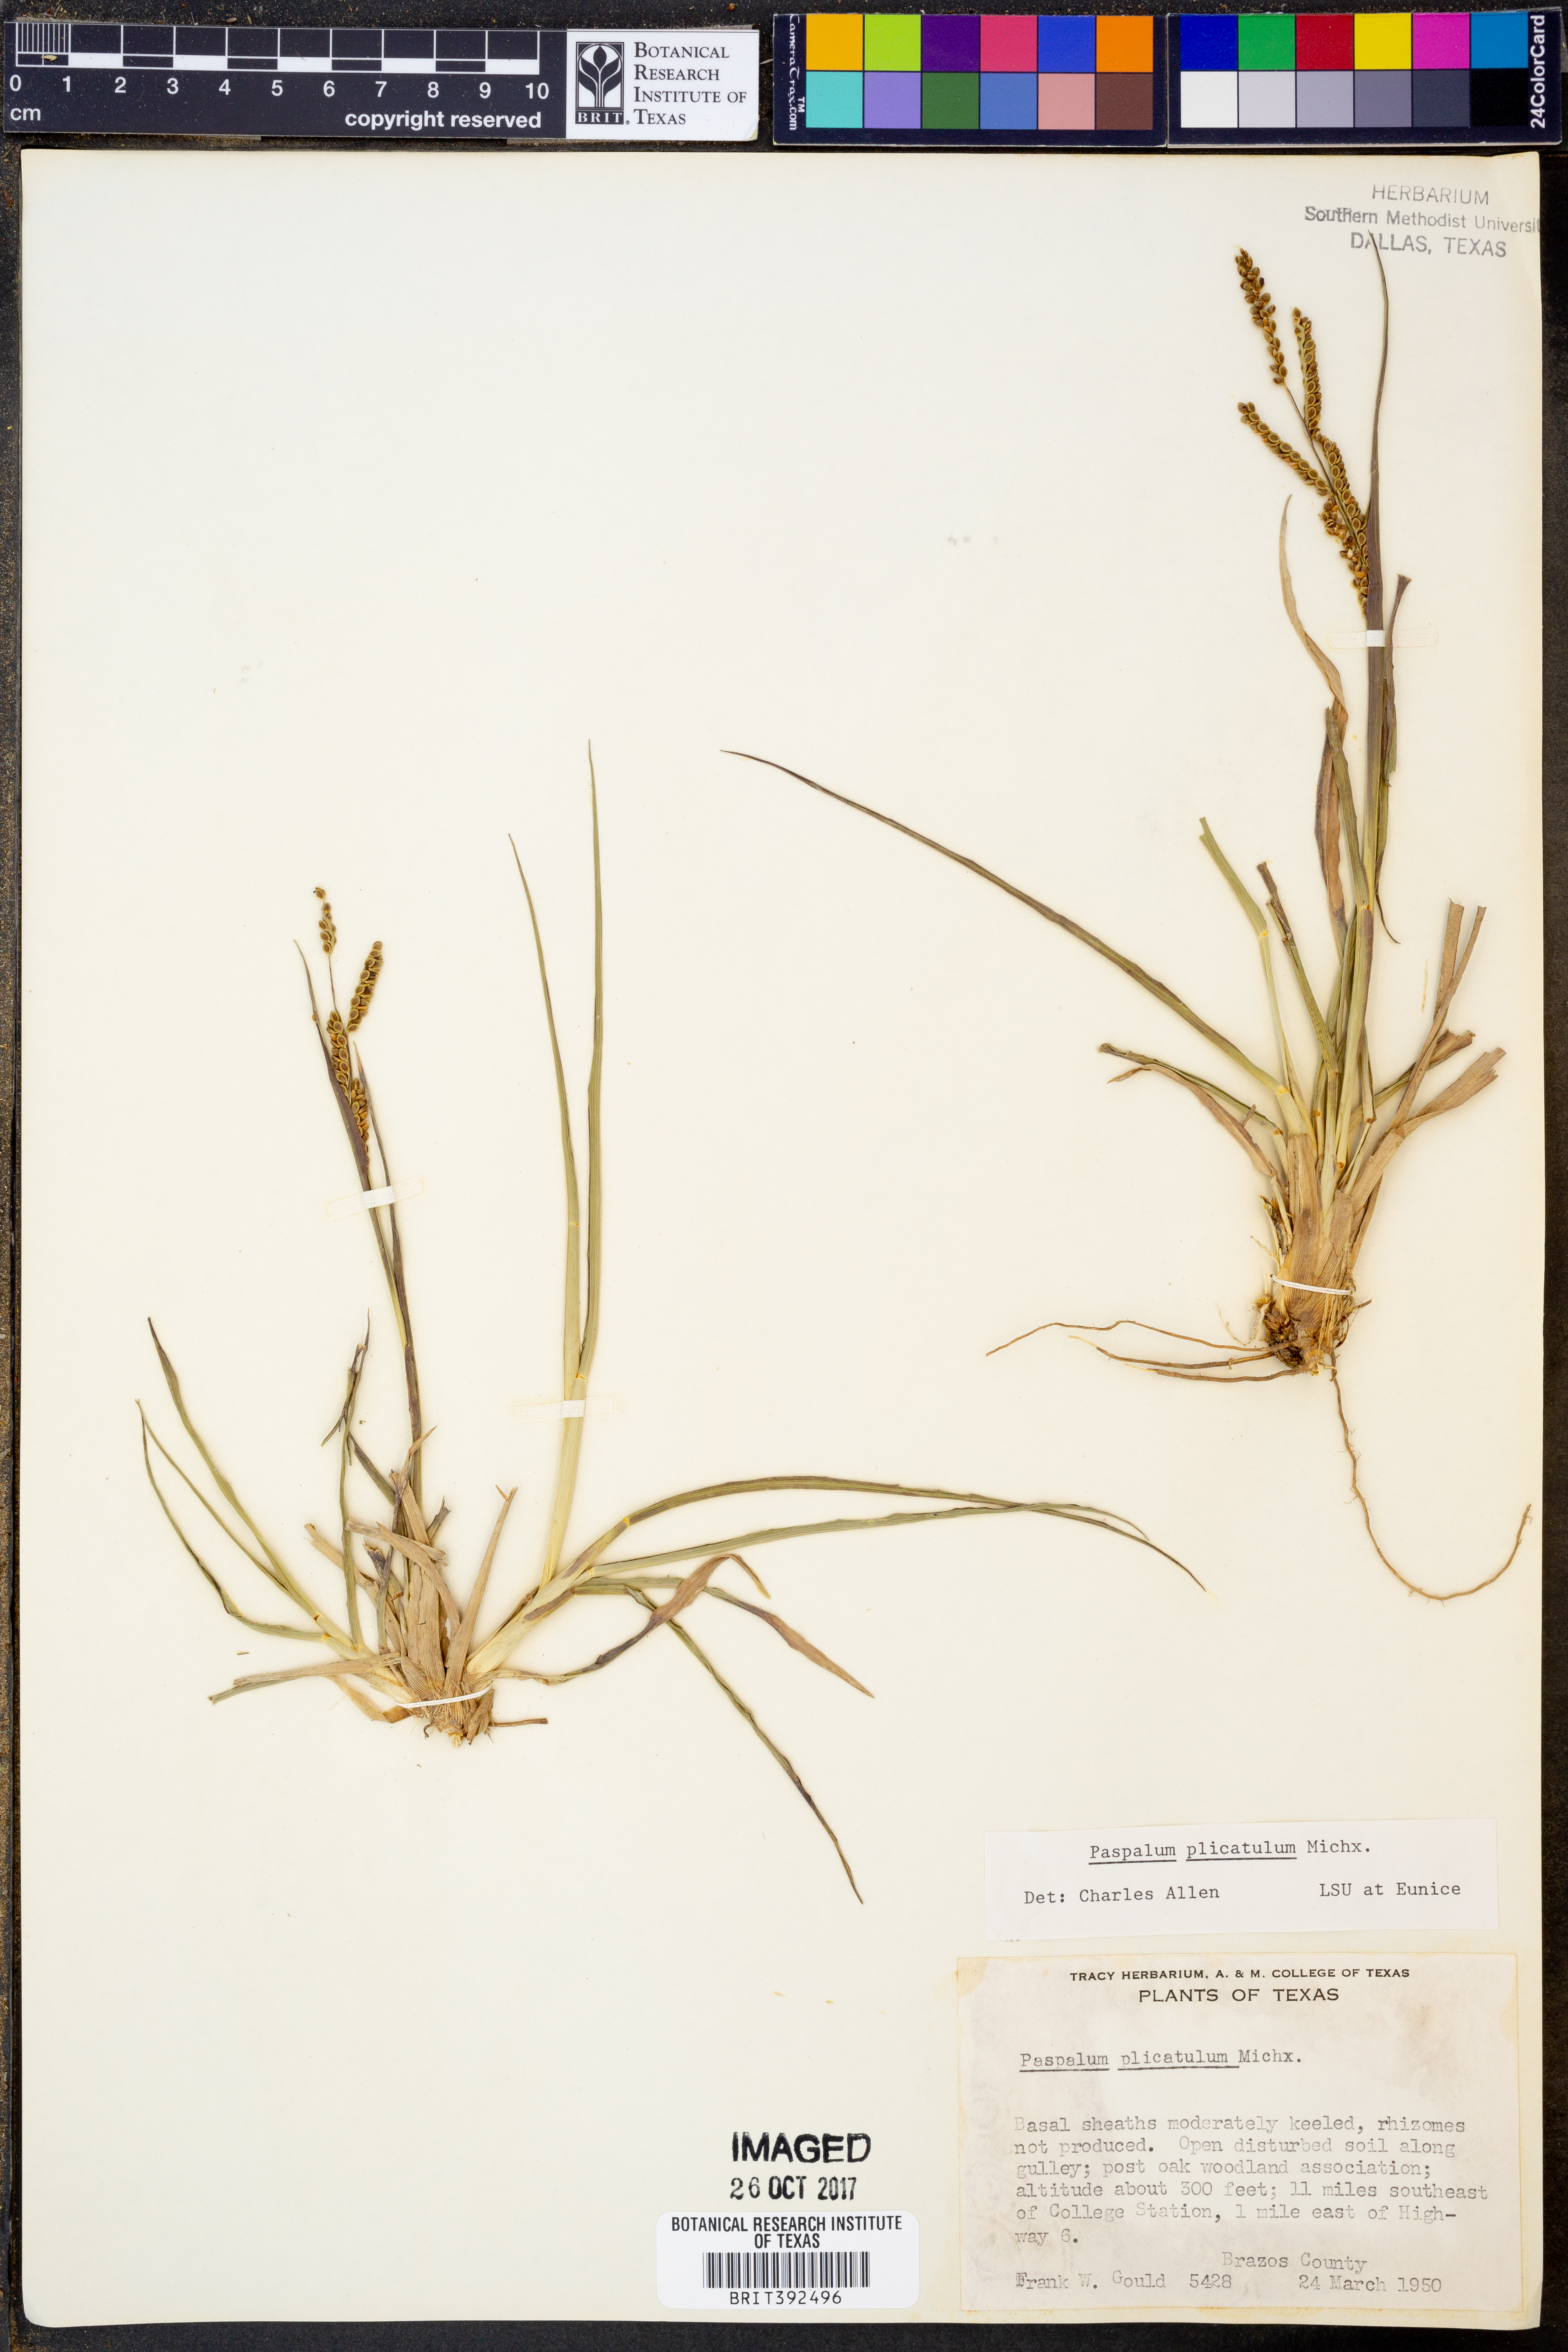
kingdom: Plantae
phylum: Tracheophyta
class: Liliopsida
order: Poales
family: Poaceae
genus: Paspalum
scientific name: Paspalum plicatulum
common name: Top paspalum
